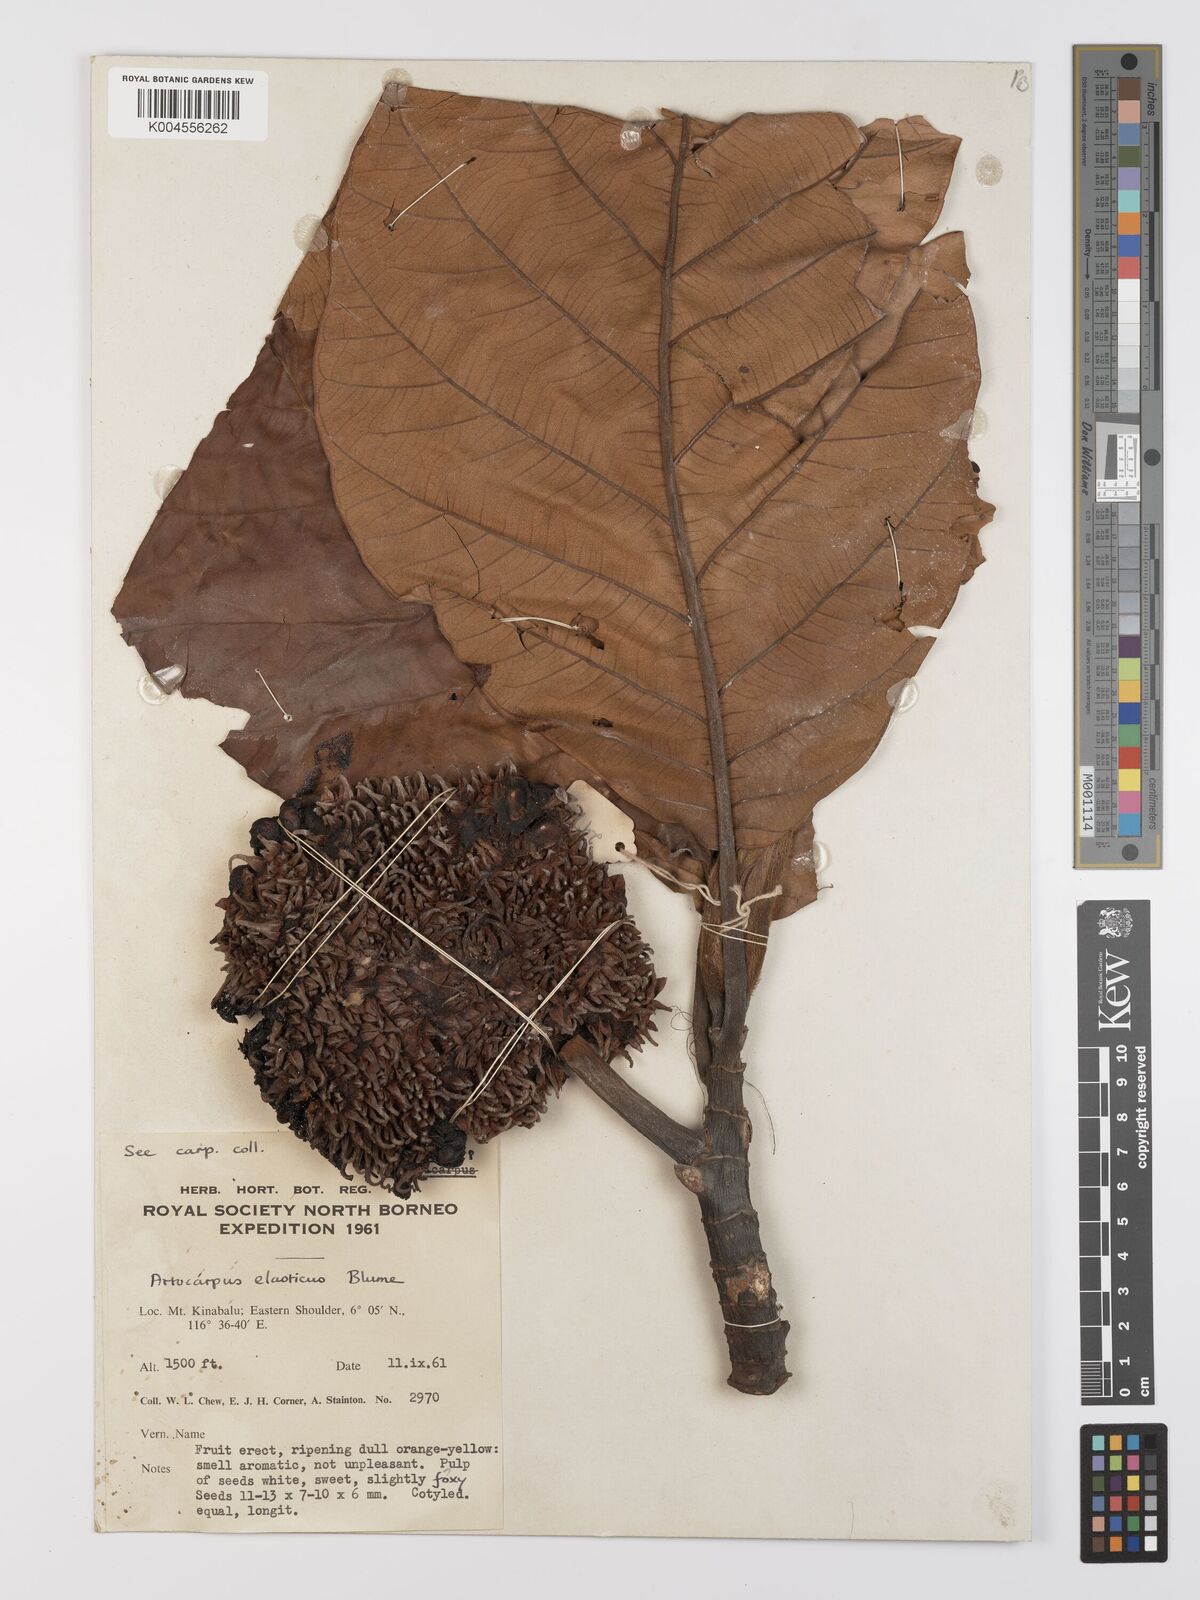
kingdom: Plantae
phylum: Tracheophyta
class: Magnoliopsida
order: Rosales
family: Moraceae
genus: Artocarpus
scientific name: Artocarpus elasticus
